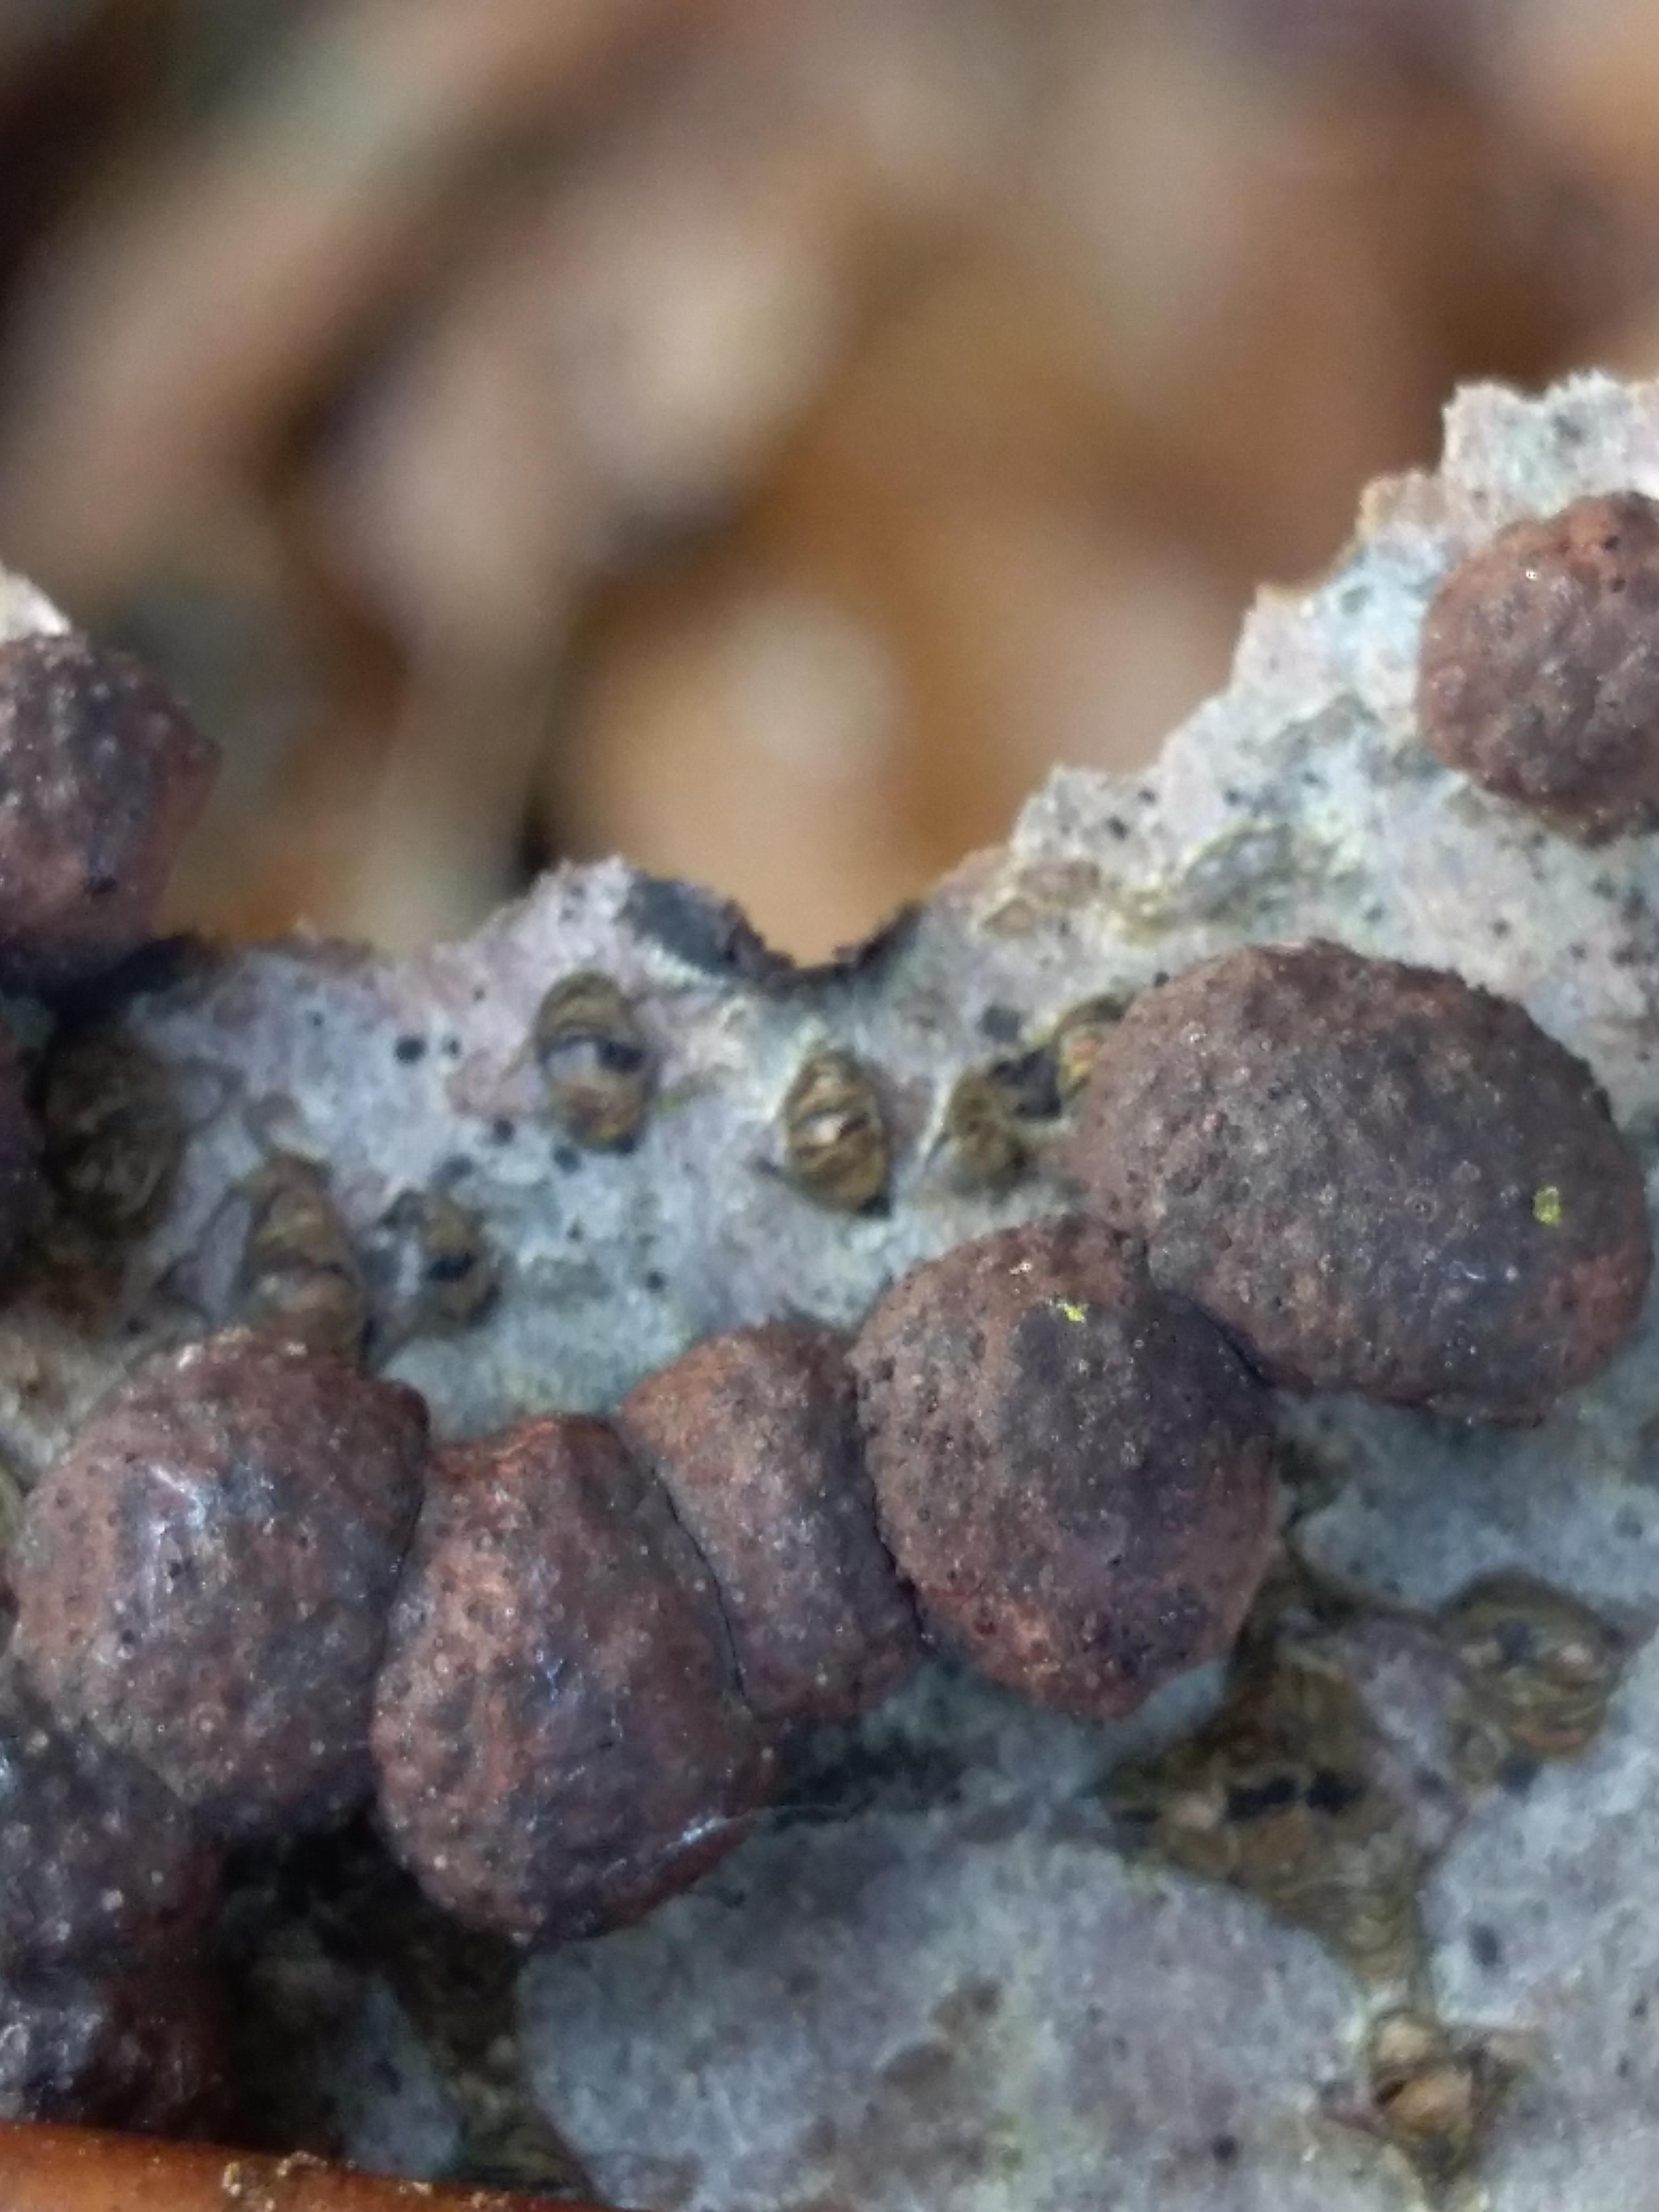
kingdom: Fungi
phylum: Ascomycota
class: Sordariomycetes
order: Xylariales
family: Hypoxylaceae
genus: Hypoxylon
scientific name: Hypoxylon fragiforme
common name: kuljordbær
